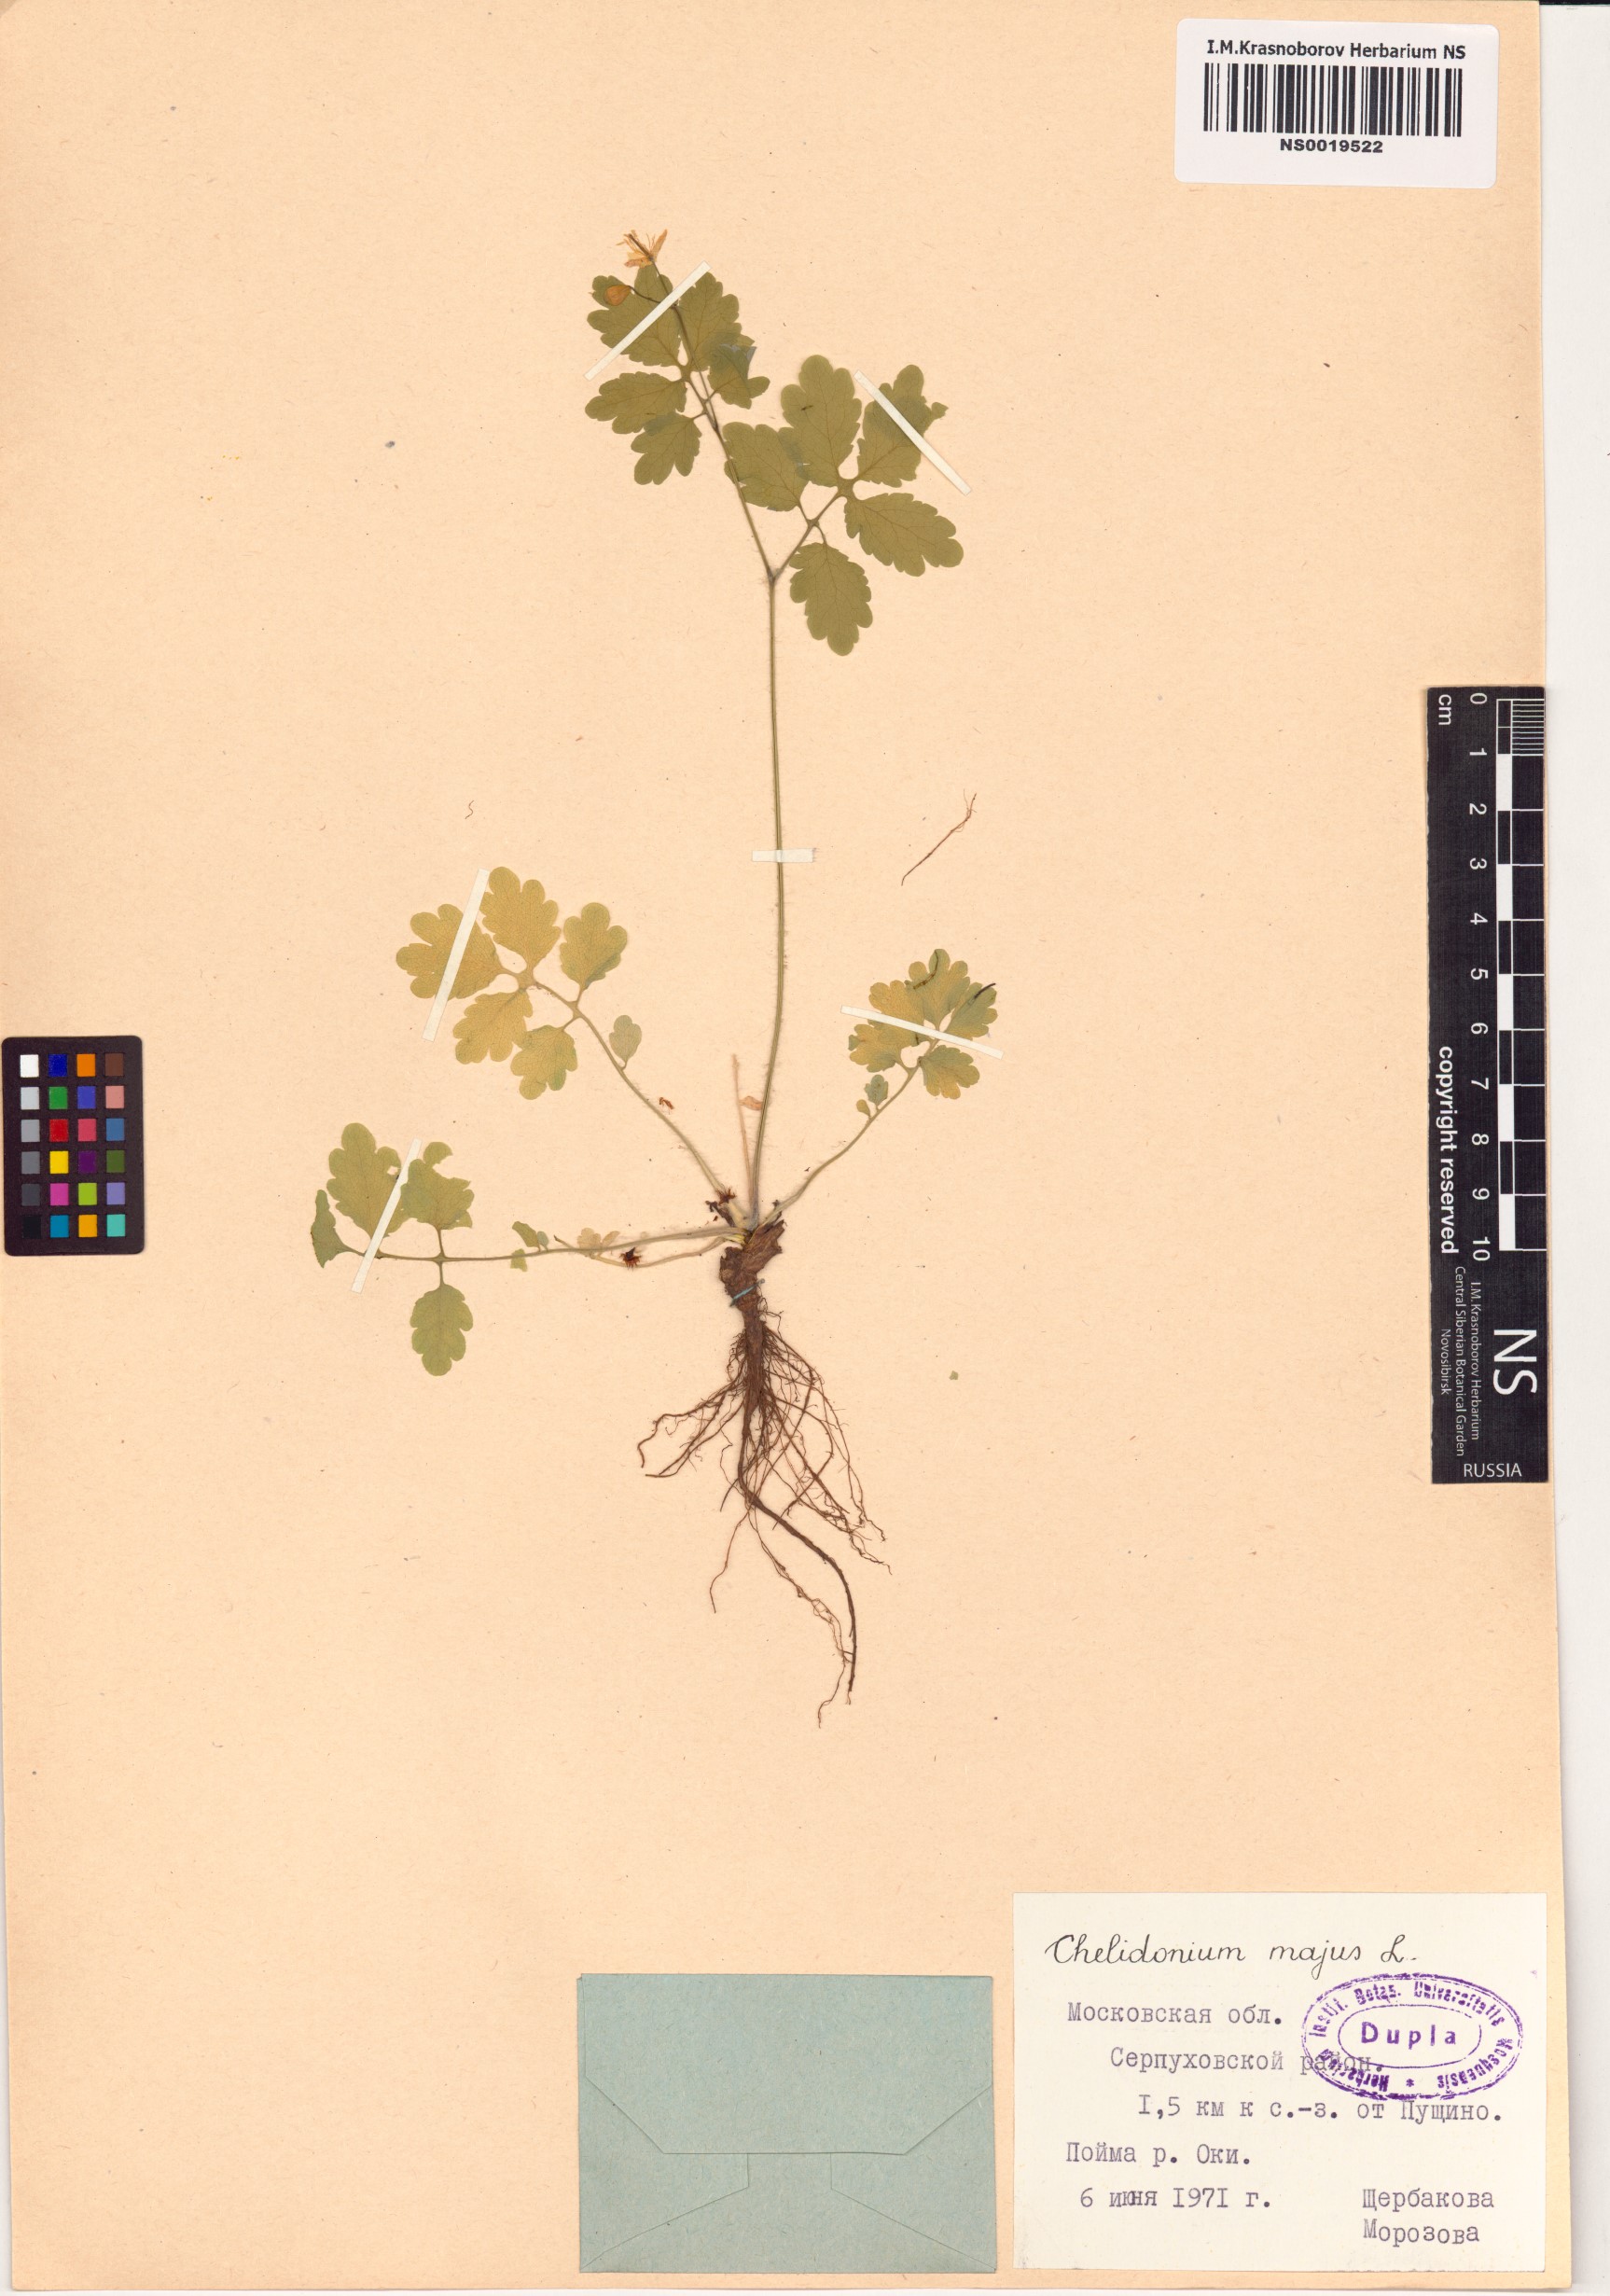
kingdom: Plantae
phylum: Tracheophyta
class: Magnoliopsida
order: Ranunculales
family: Papaveraceae
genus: Chelidonium
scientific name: Chelidonium majus
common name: Greater celandine
